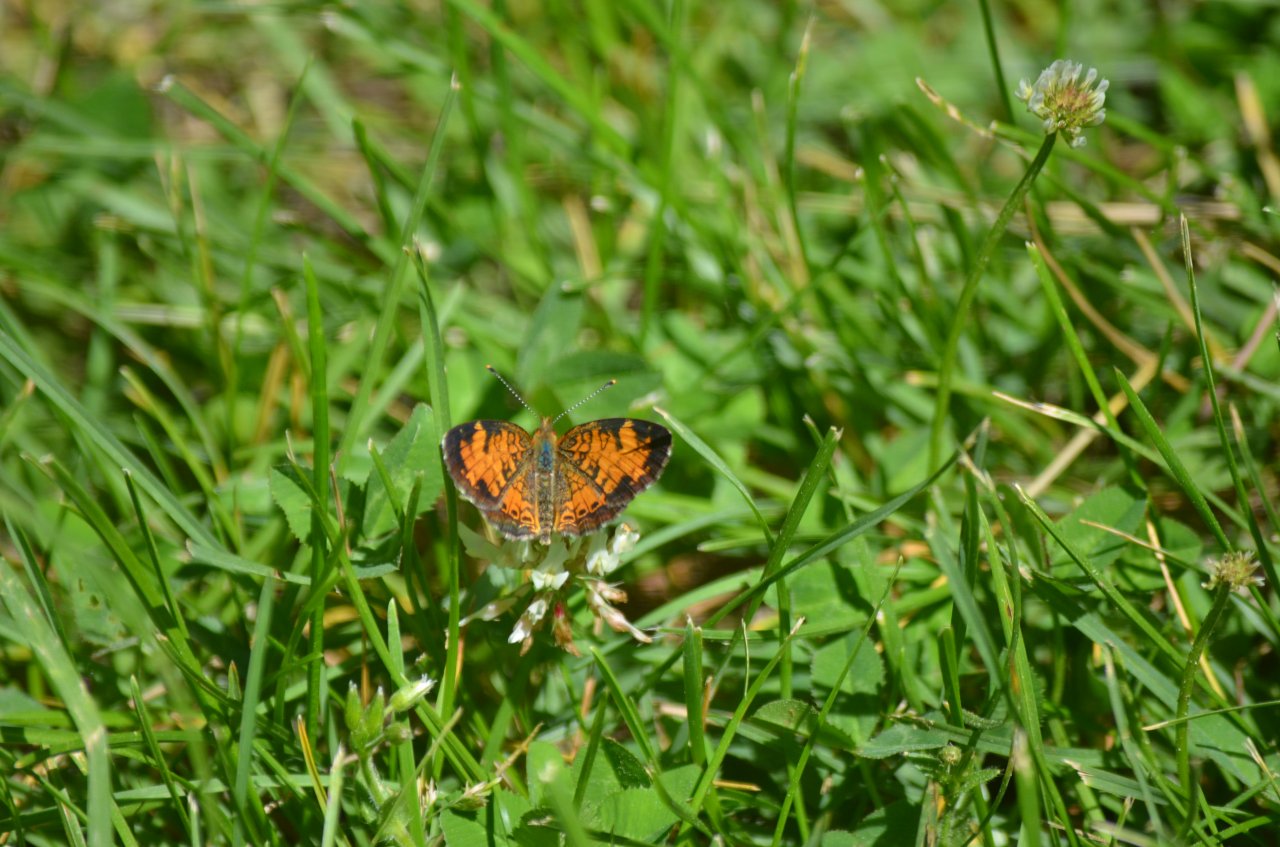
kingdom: Animalia
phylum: Arthropoda
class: Insecta
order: Lepidoptera
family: Nymphalidae
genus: Phyciodes
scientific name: Phyciodes tharos
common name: Northern Crescent
